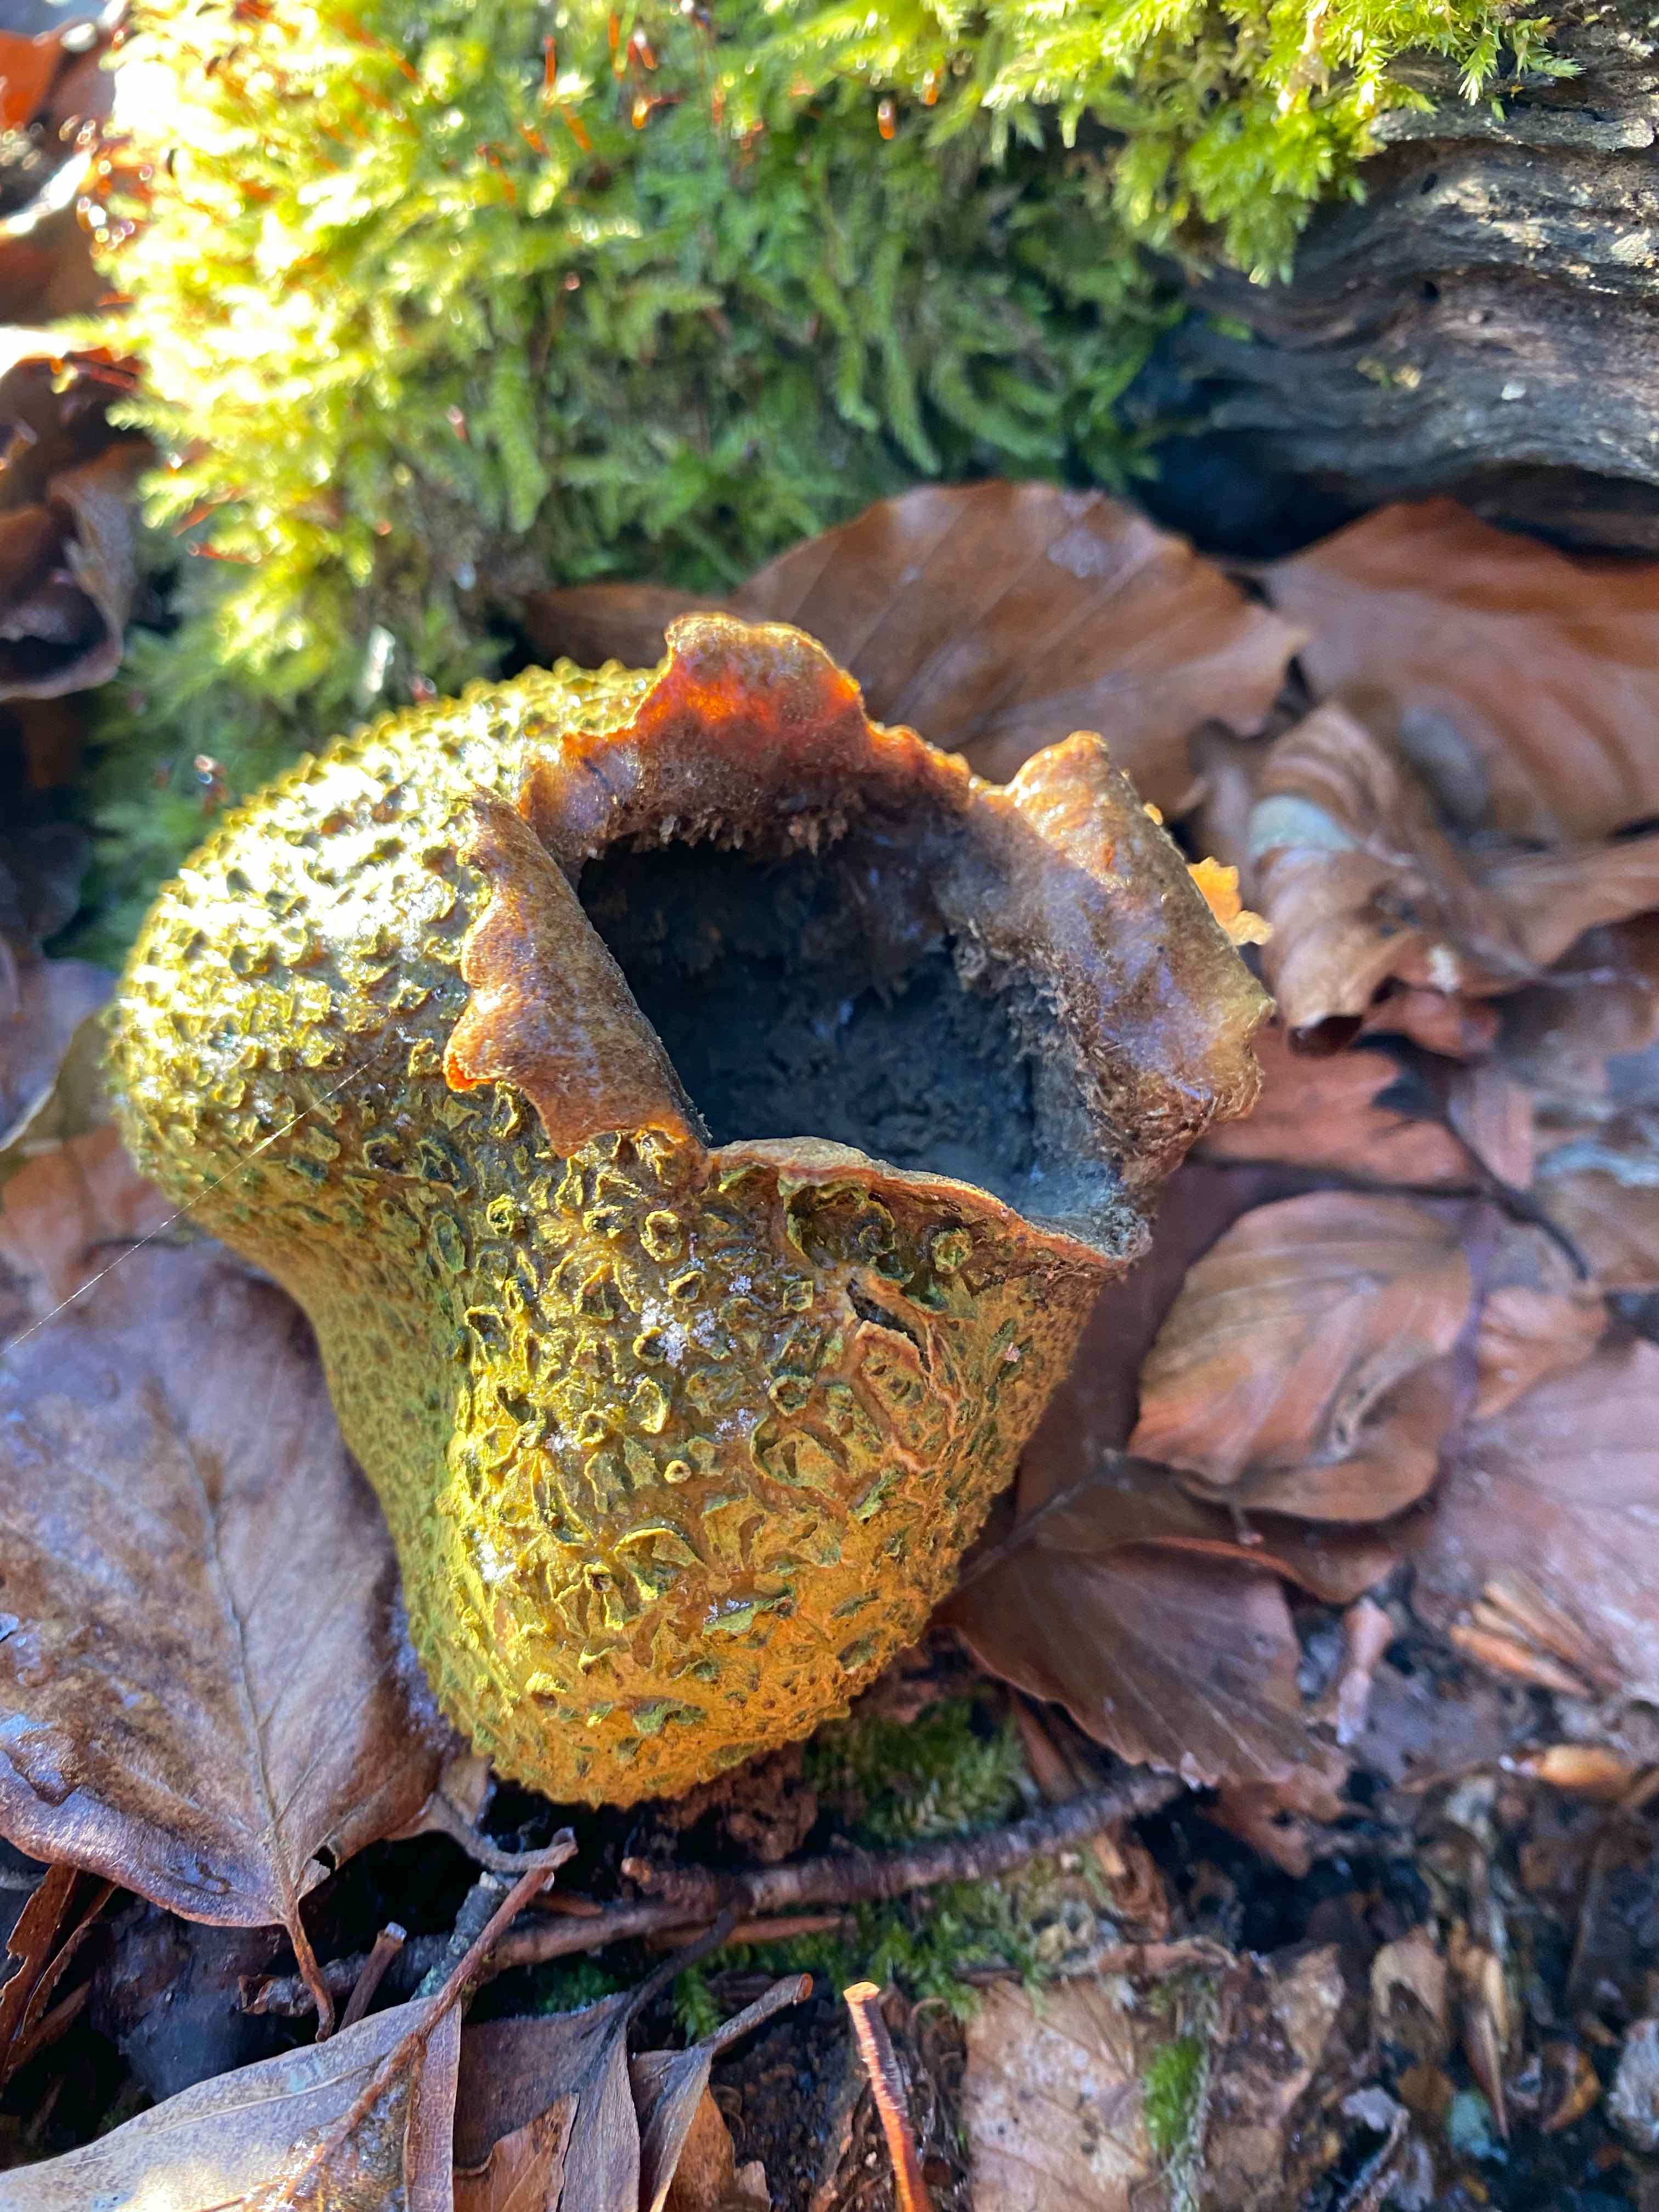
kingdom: Fungi
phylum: Basidiomycota
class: Agaricomycetes
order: Boletales
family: Sclerodermataceae
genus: Scleroderma
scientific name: Scleroderma citrinum
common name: almindelig bruskbold
